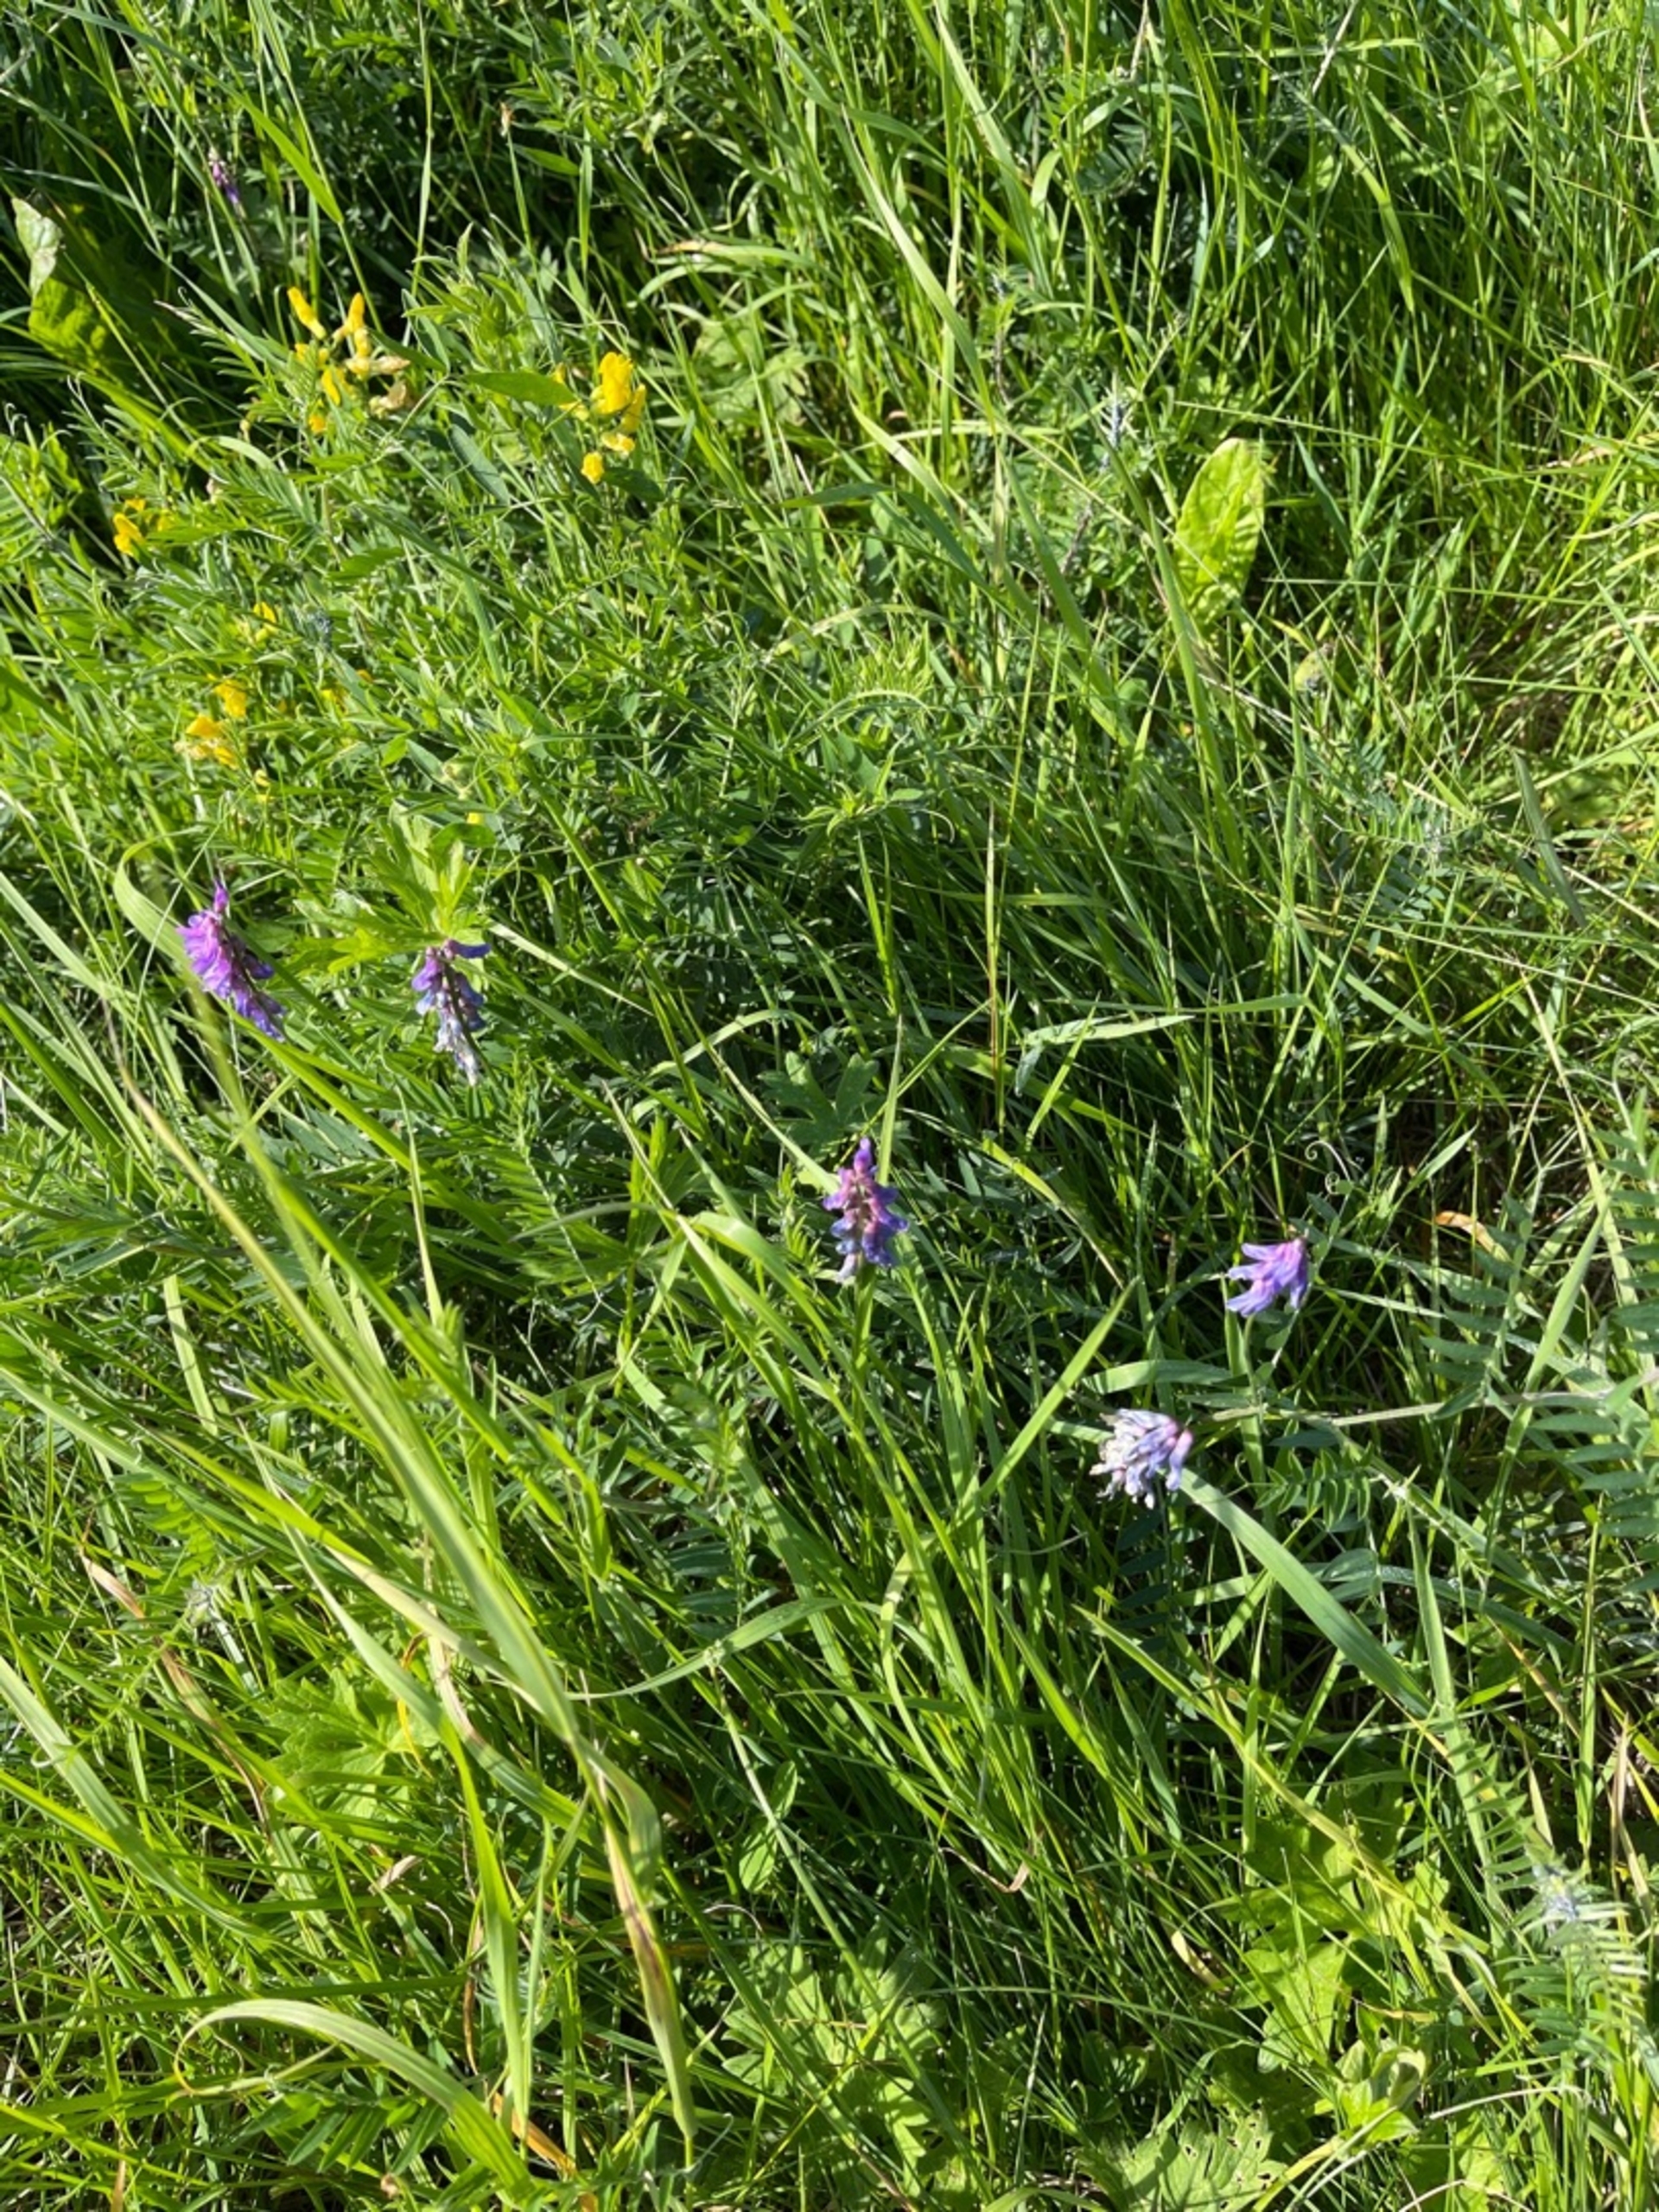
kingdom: Plantae
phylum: Tracheophyta
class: Magnoliopsida
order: Fabales
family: Fabaceae
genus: Vicia
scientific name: Vicia cracca
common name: Muse-vikke
